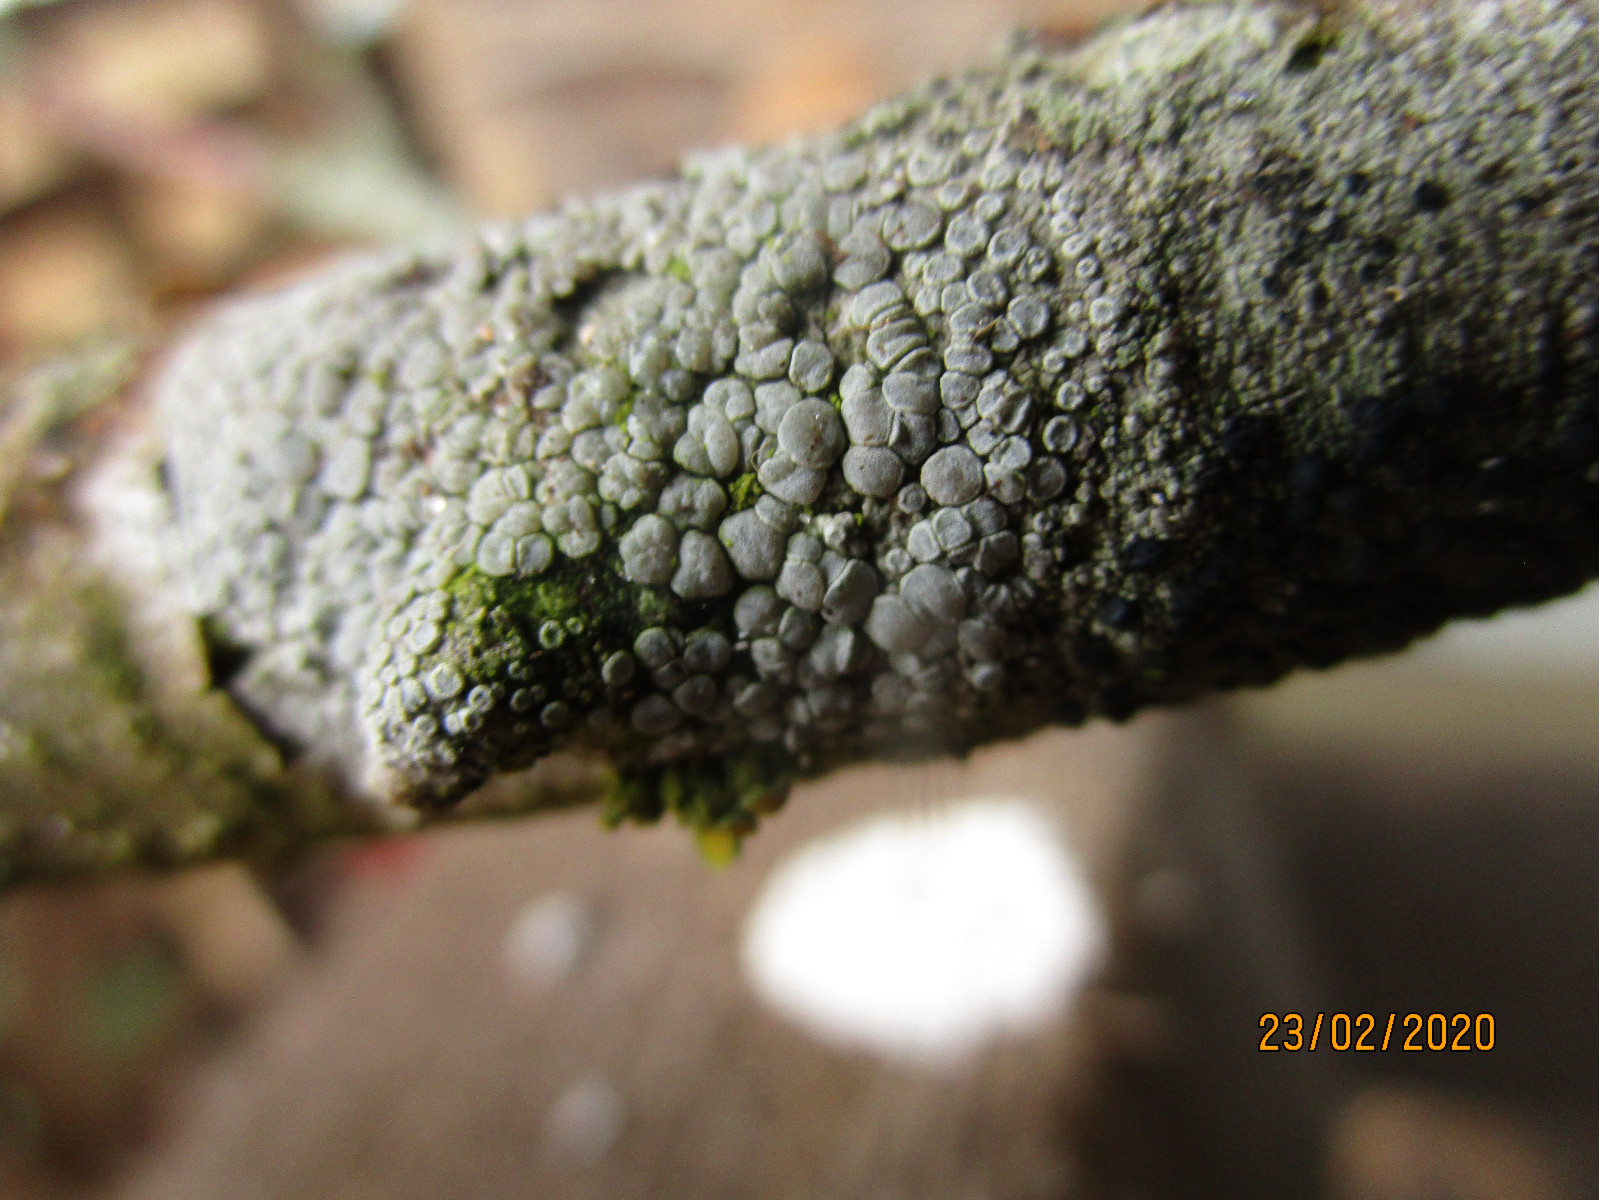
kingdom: Fungi
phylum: Ascomycota
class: Lecanoromycetes
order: Lecanorales
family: Lecanoraceae
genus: Glaucomaria
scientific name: Glaucomaria carpinea
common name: hviddugget kantskivelav
